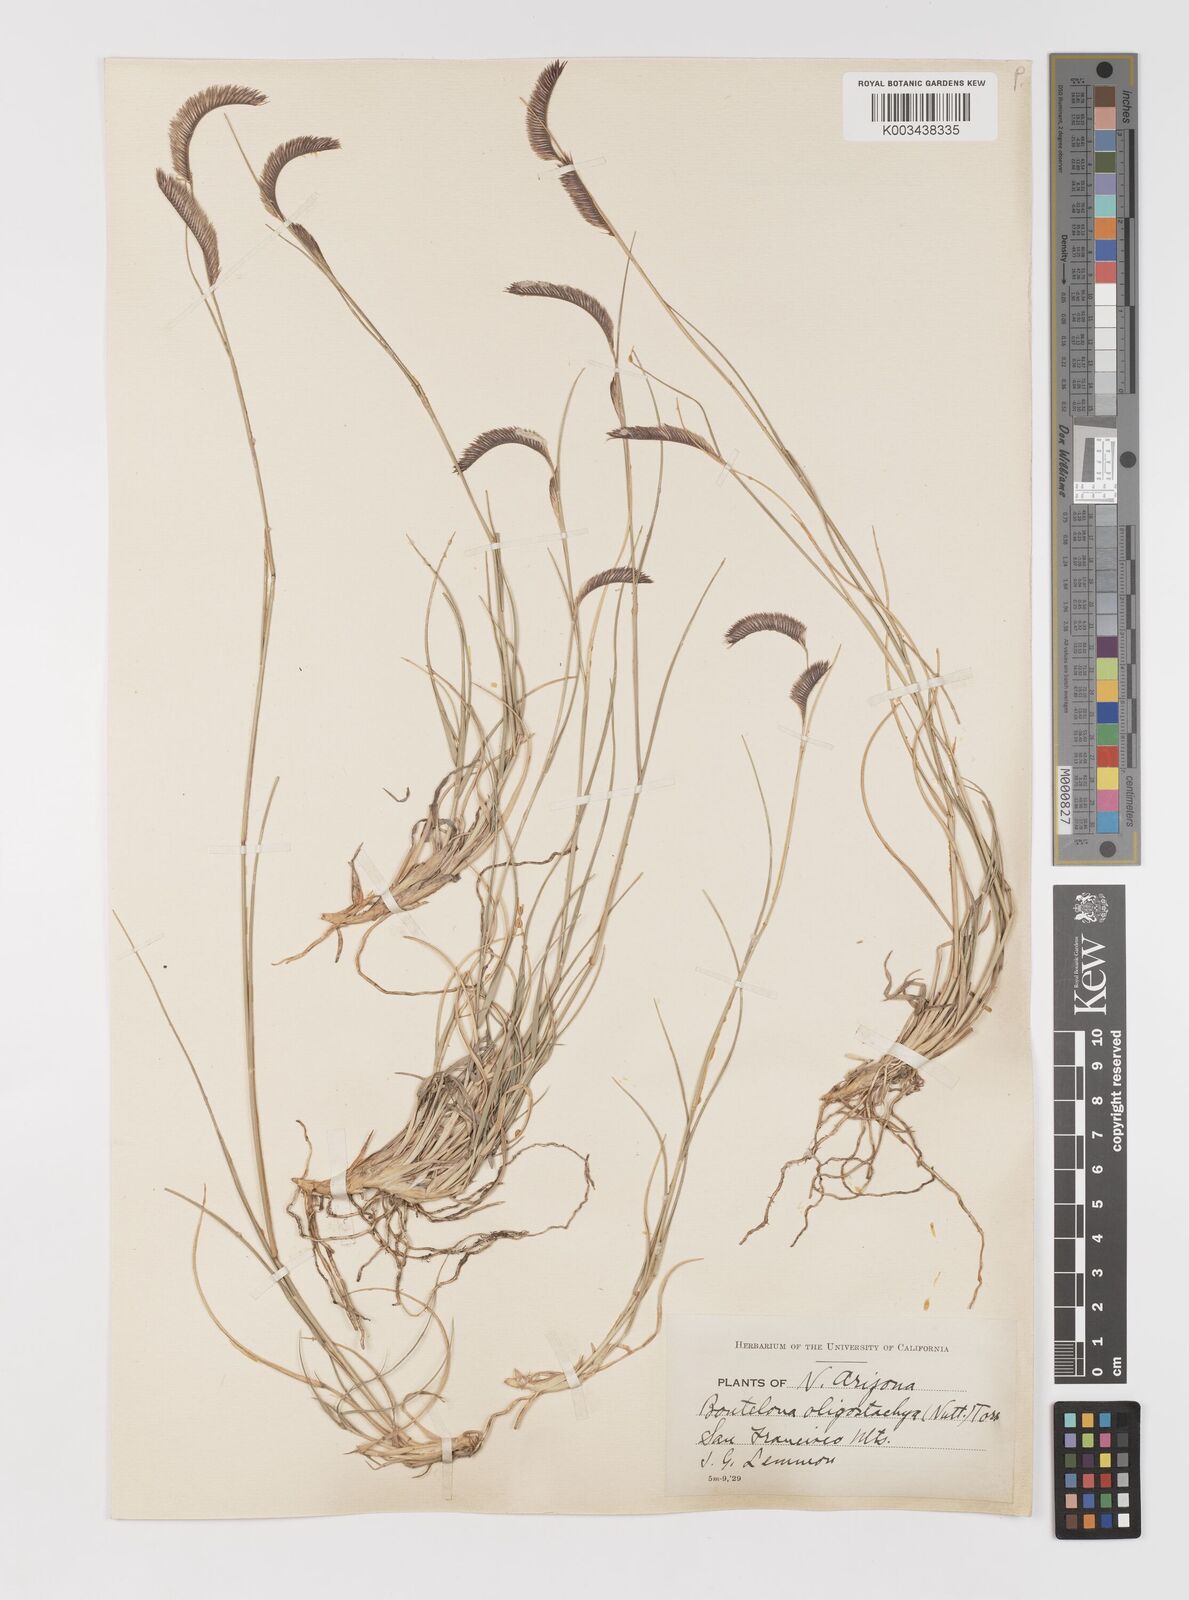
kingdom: Plantae
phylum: Tracheophyta
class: Liliopsida
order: Poales
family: Poaceae
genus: Bouteloua
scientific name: Bouteloua
